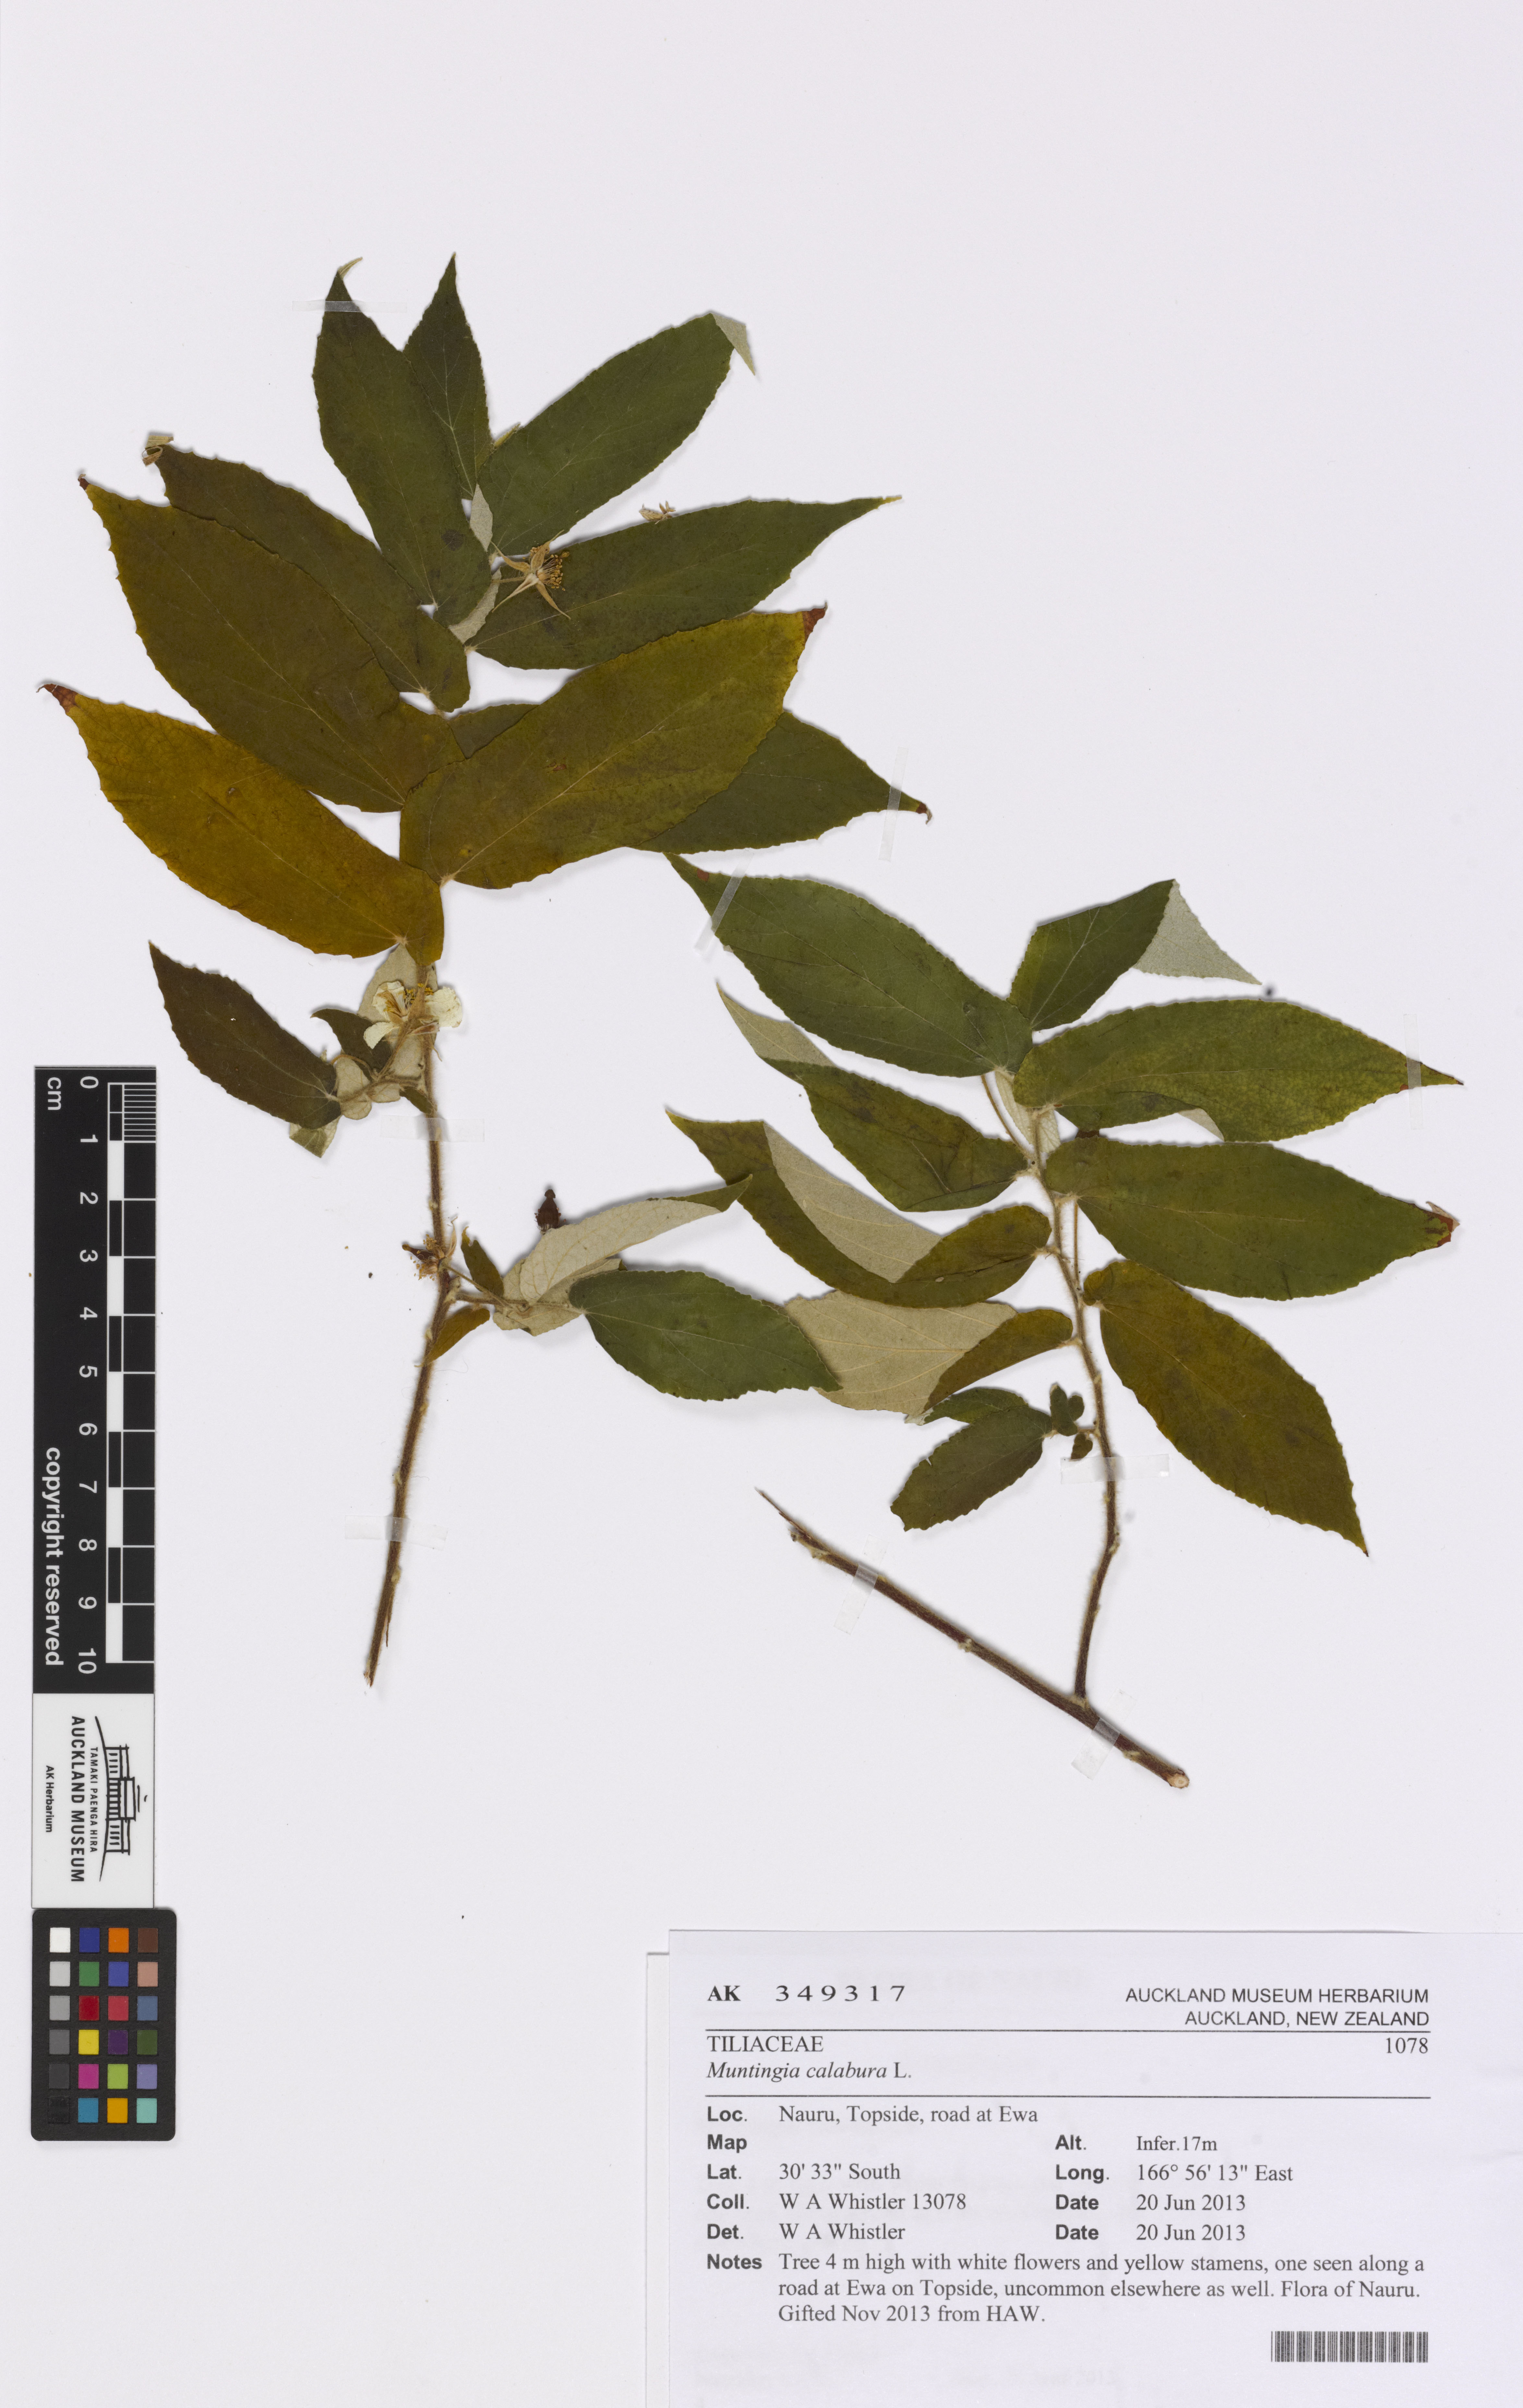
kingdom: Plantae
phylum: Tracheophyta
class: Magnoliopsida
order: Malvales
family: Muntingiaceae
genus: Muntingia
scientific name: Muntingia calabura
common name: Strawberrytree
